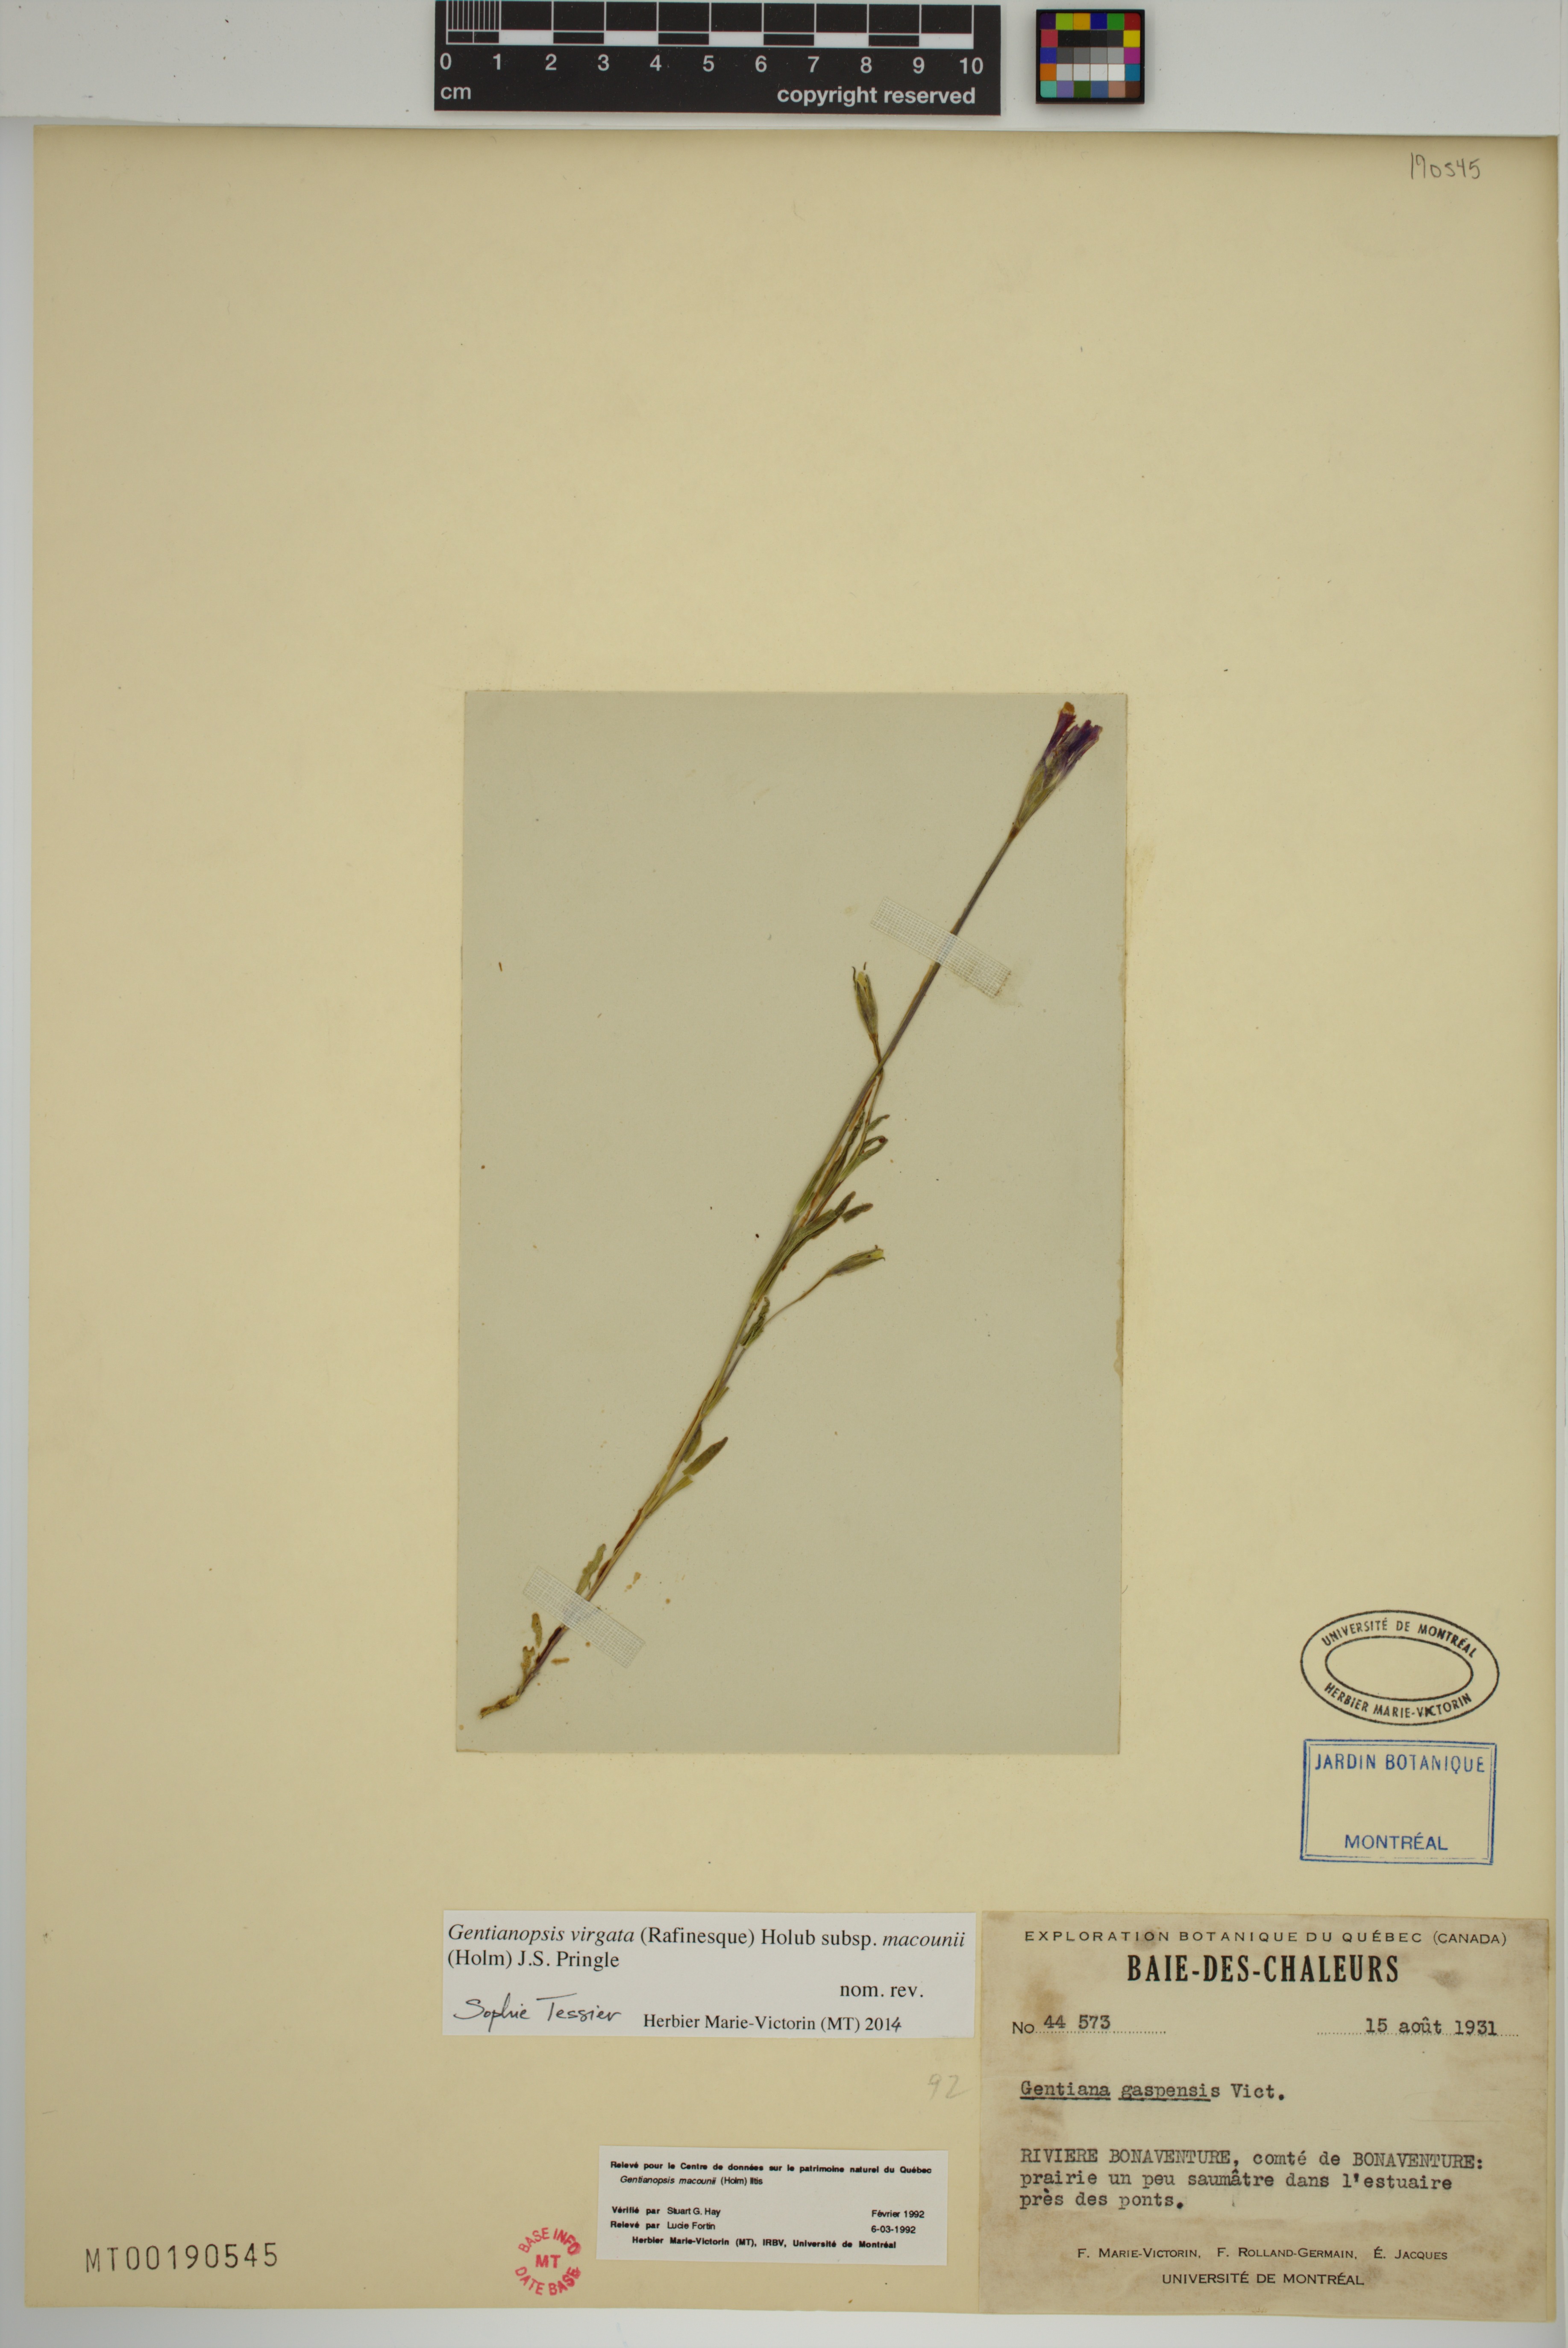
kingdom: Plantae
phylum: Tracheophyta
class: Magnoliopsida
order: Gentianales
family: Gentianaceae
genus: Gentianopsis
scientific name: Gentianopsis macounii
